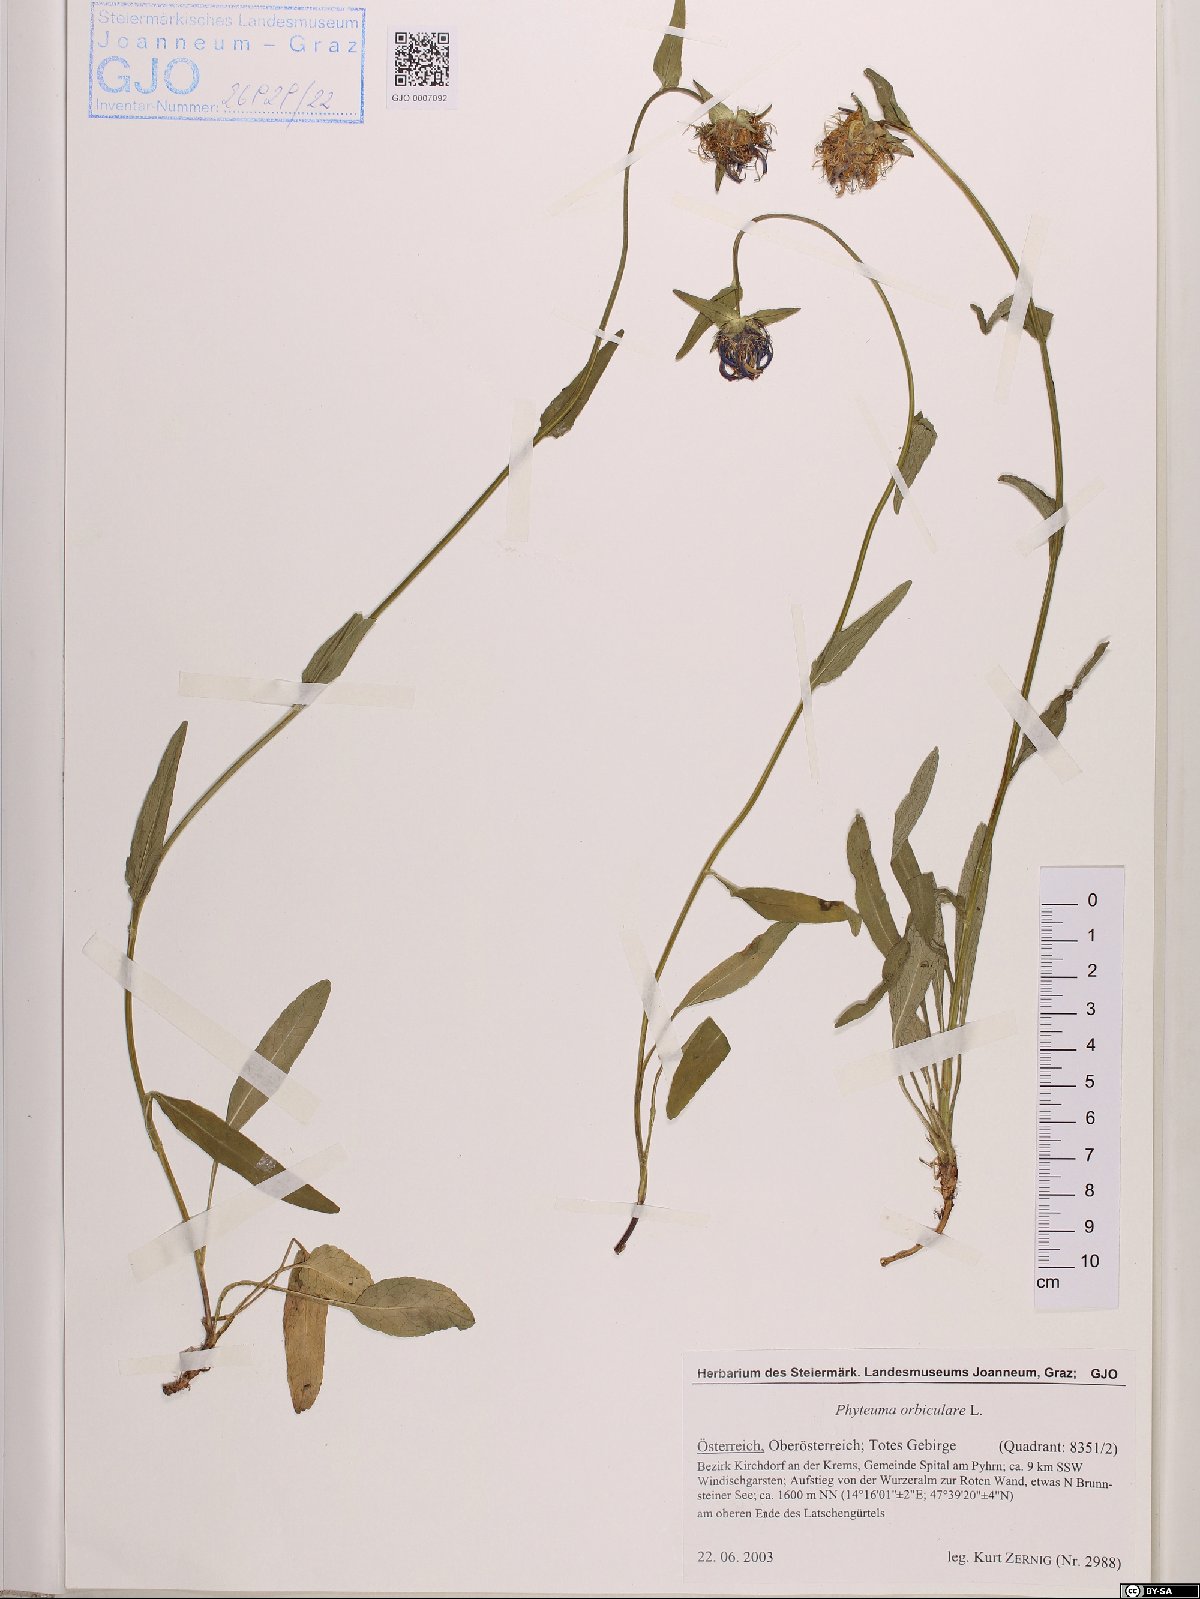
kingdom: Plantae
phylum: Tracheophyta
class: Magnoliopsida
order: Asterales
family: Campanulaceae
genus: Phyteuma
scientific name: Phyteuma orbiculare
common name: Round-headed rampion
